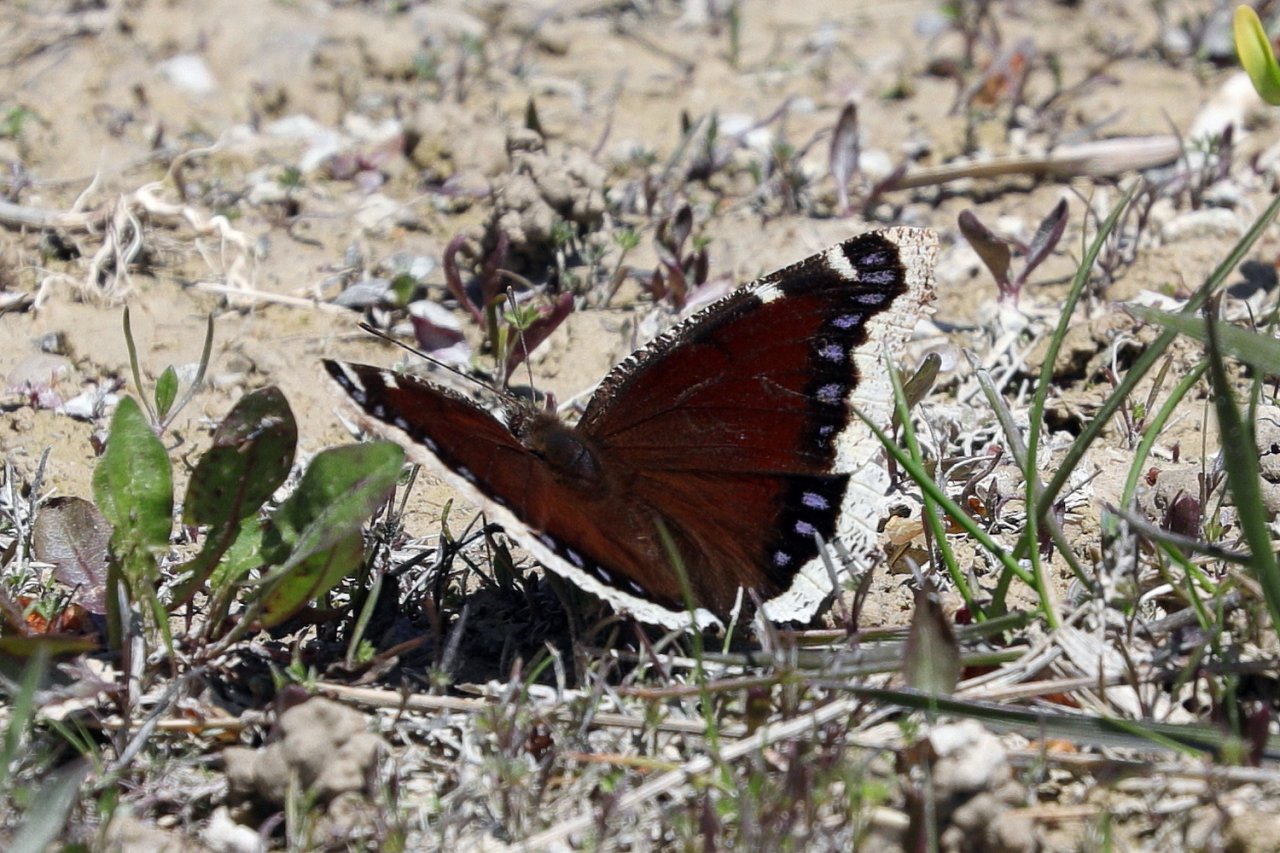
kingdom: Animalia
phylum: Arthropoda
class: Insecta
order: Lepidoptera
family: Nymphalidae
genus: Nymphalis
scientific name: Nymphalis antiopa
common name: Mourning Cloak
